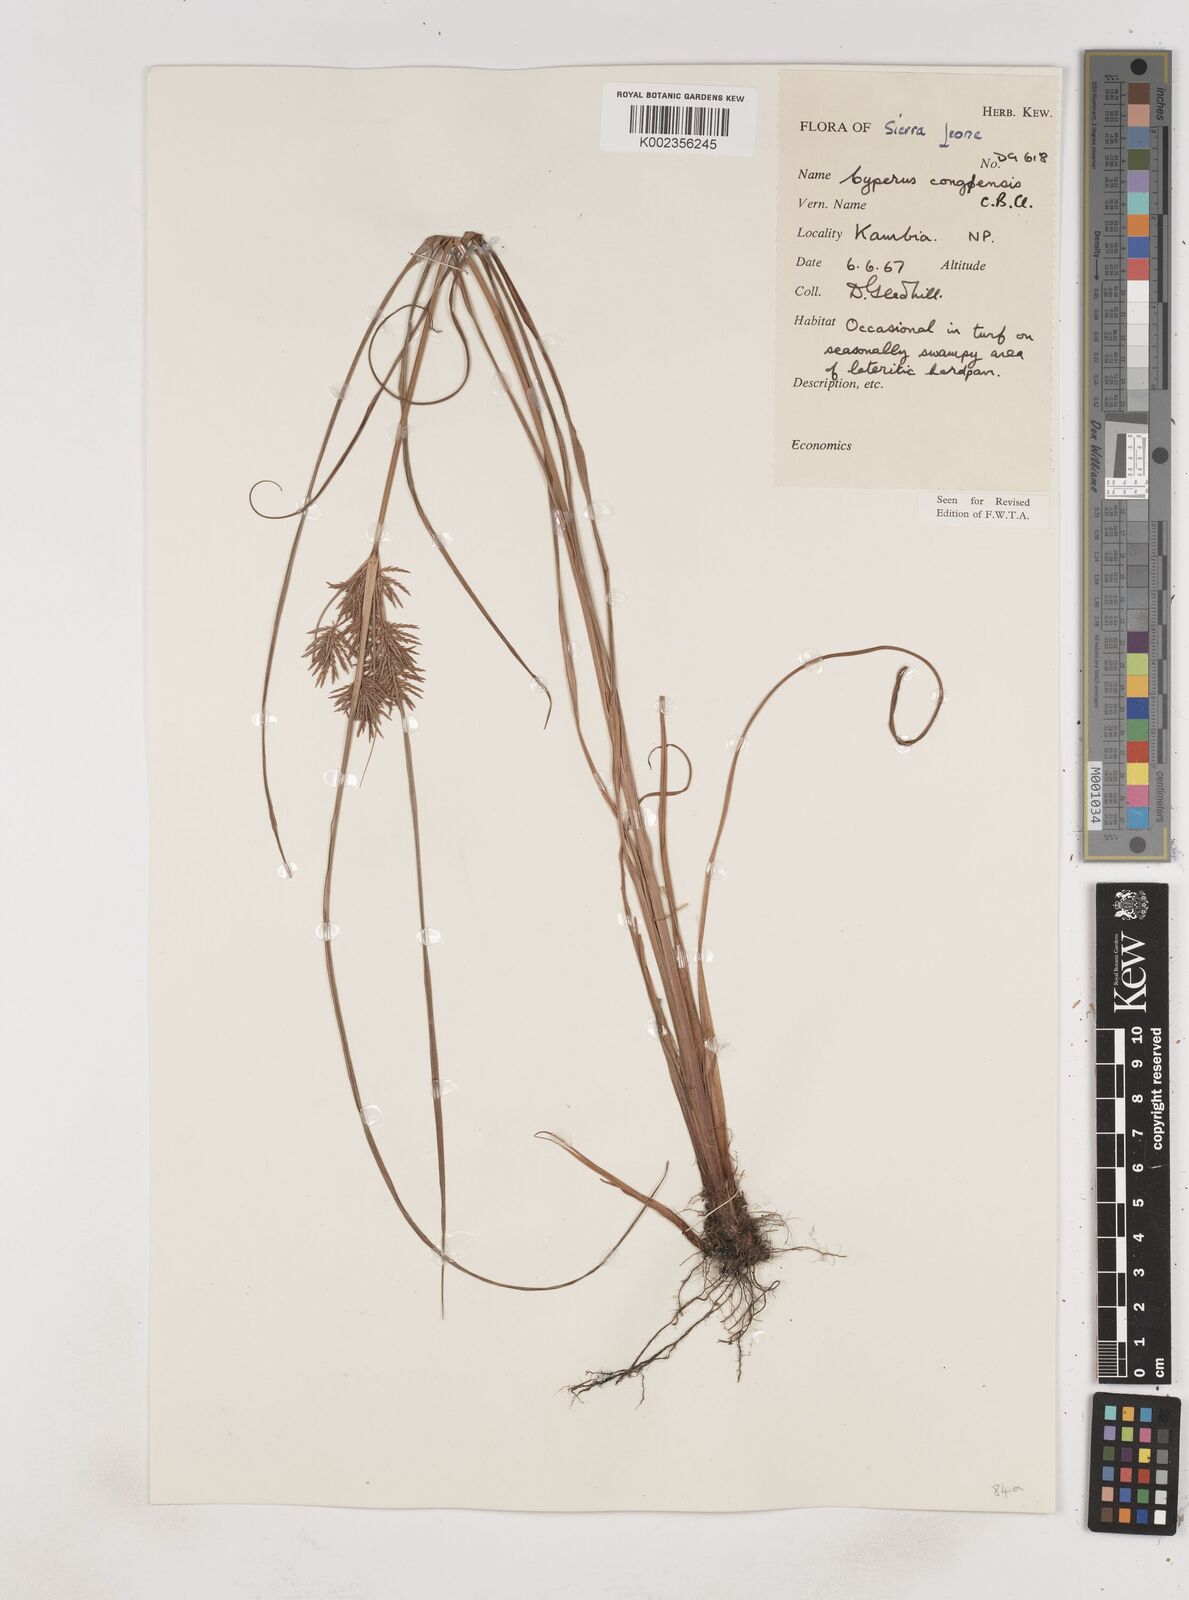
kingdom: Plantae
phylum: Tracheophyta
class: Liliopsida
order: Poales
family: Cyperaceae
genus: Cyperus
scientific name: Cyperus congensis
